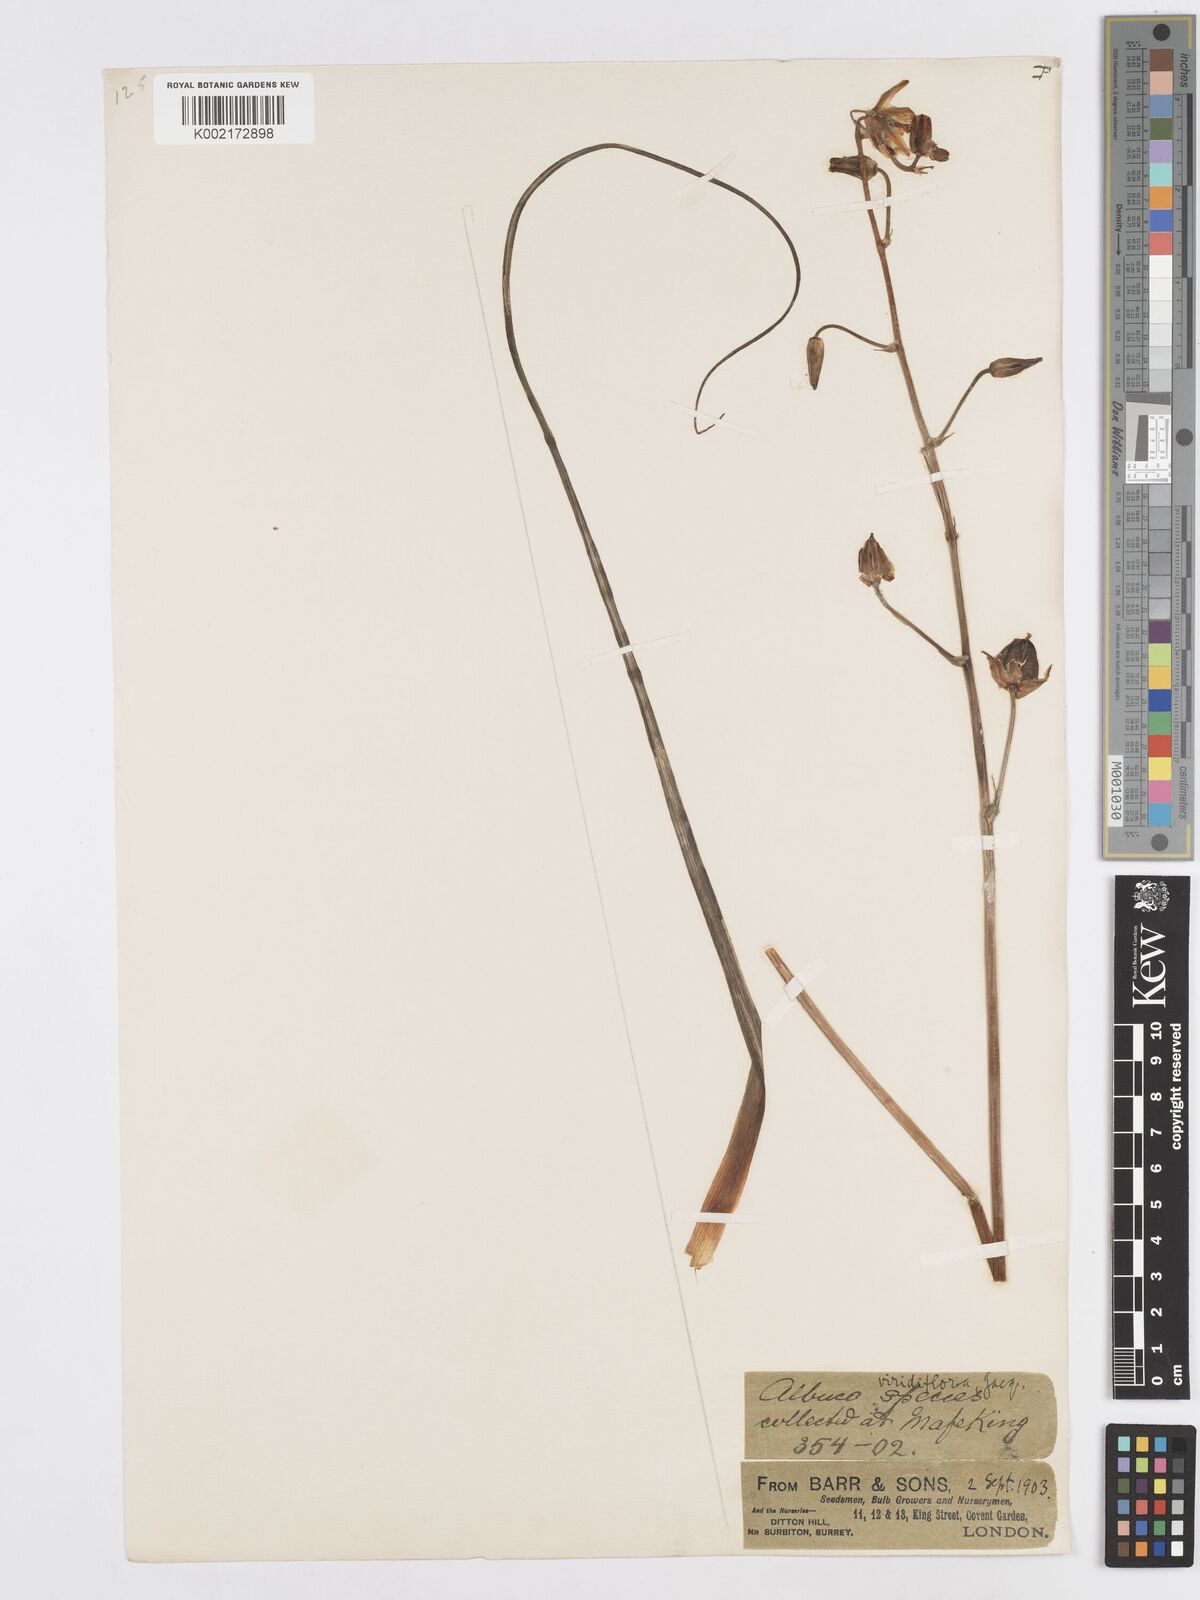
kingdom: Plantae
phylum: Tracheophyta
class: Liliopsida
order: Asparagales
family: Asparagaceae
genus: Albuca
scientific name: Albuca viridiflora
